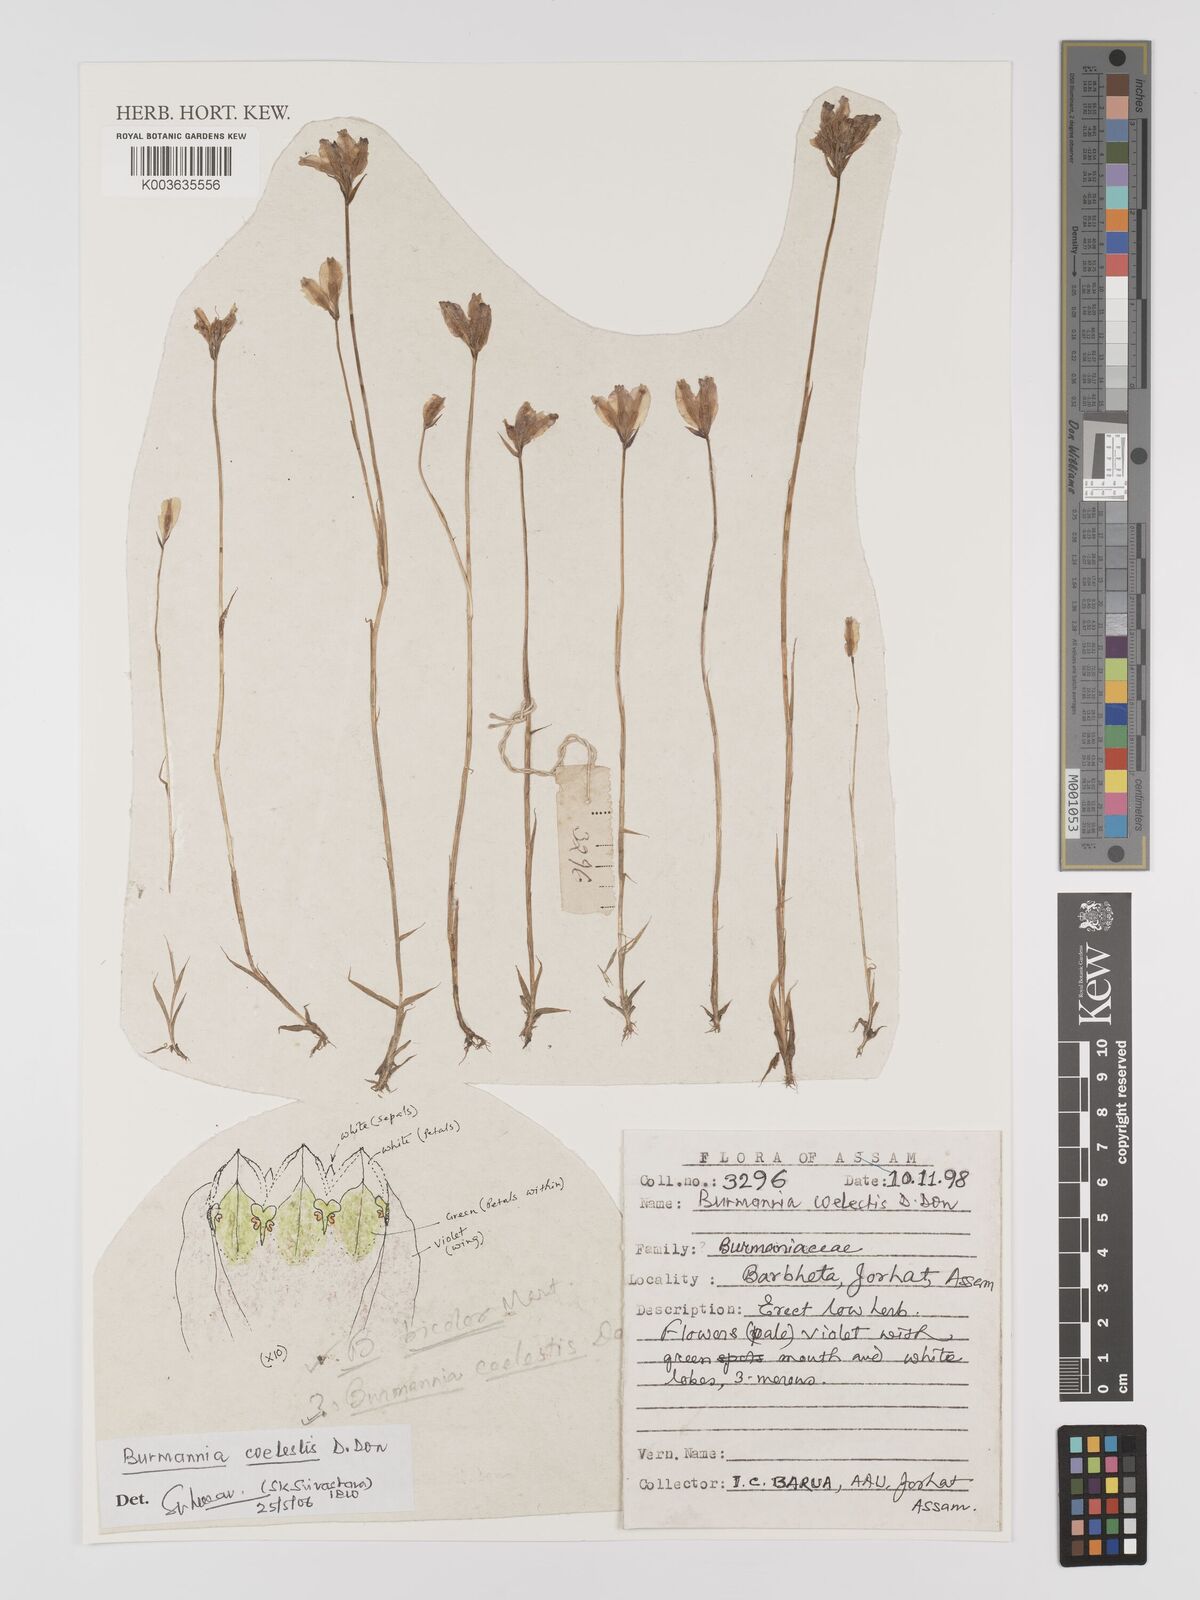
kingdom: Plantae
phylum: Tracheophyta
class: Liliopsida
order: Dioscoreales
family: Burmanniaceae
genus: Burmannia
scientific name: Burmannia coelestis
